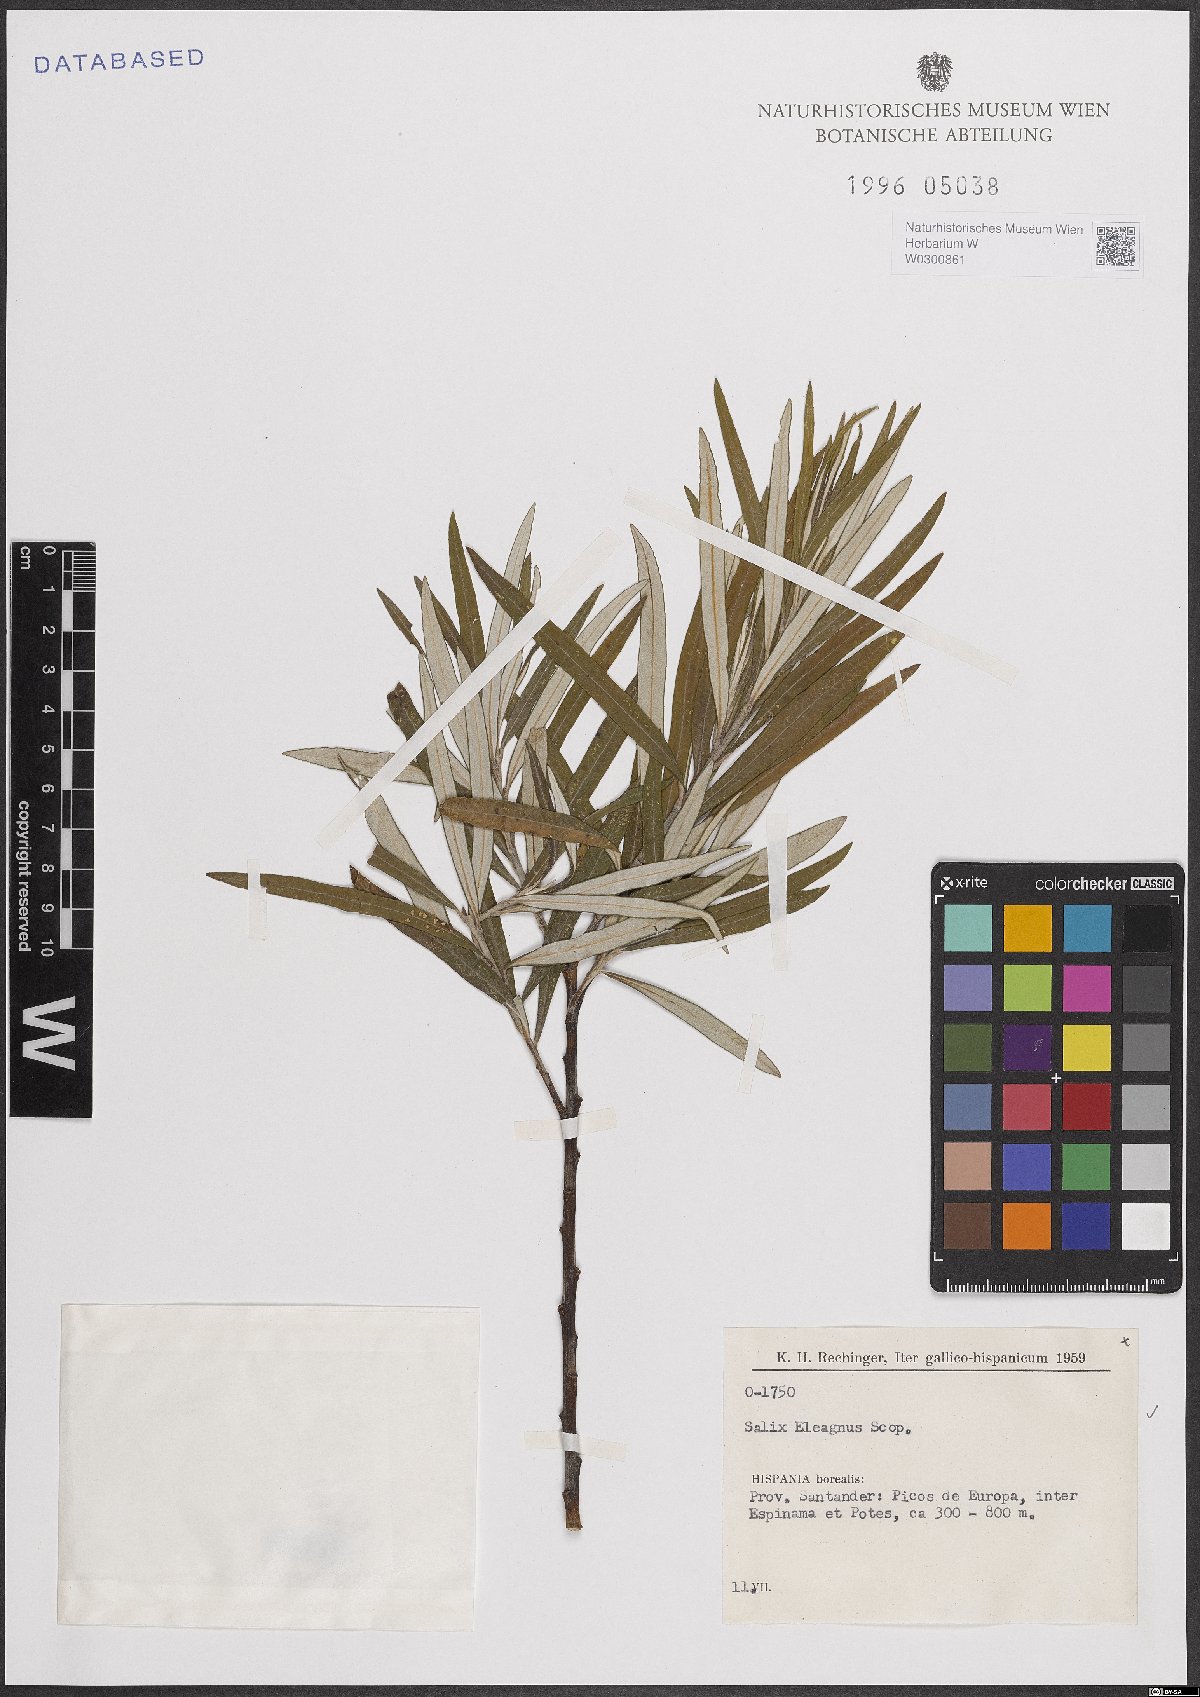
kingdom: Plantae
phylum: Tracheophyta
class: Magnoliopsida
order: Malpighiales
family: Salicaceae
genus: Salix
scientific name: Salix eleagnos
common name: Elaeagnus willow
